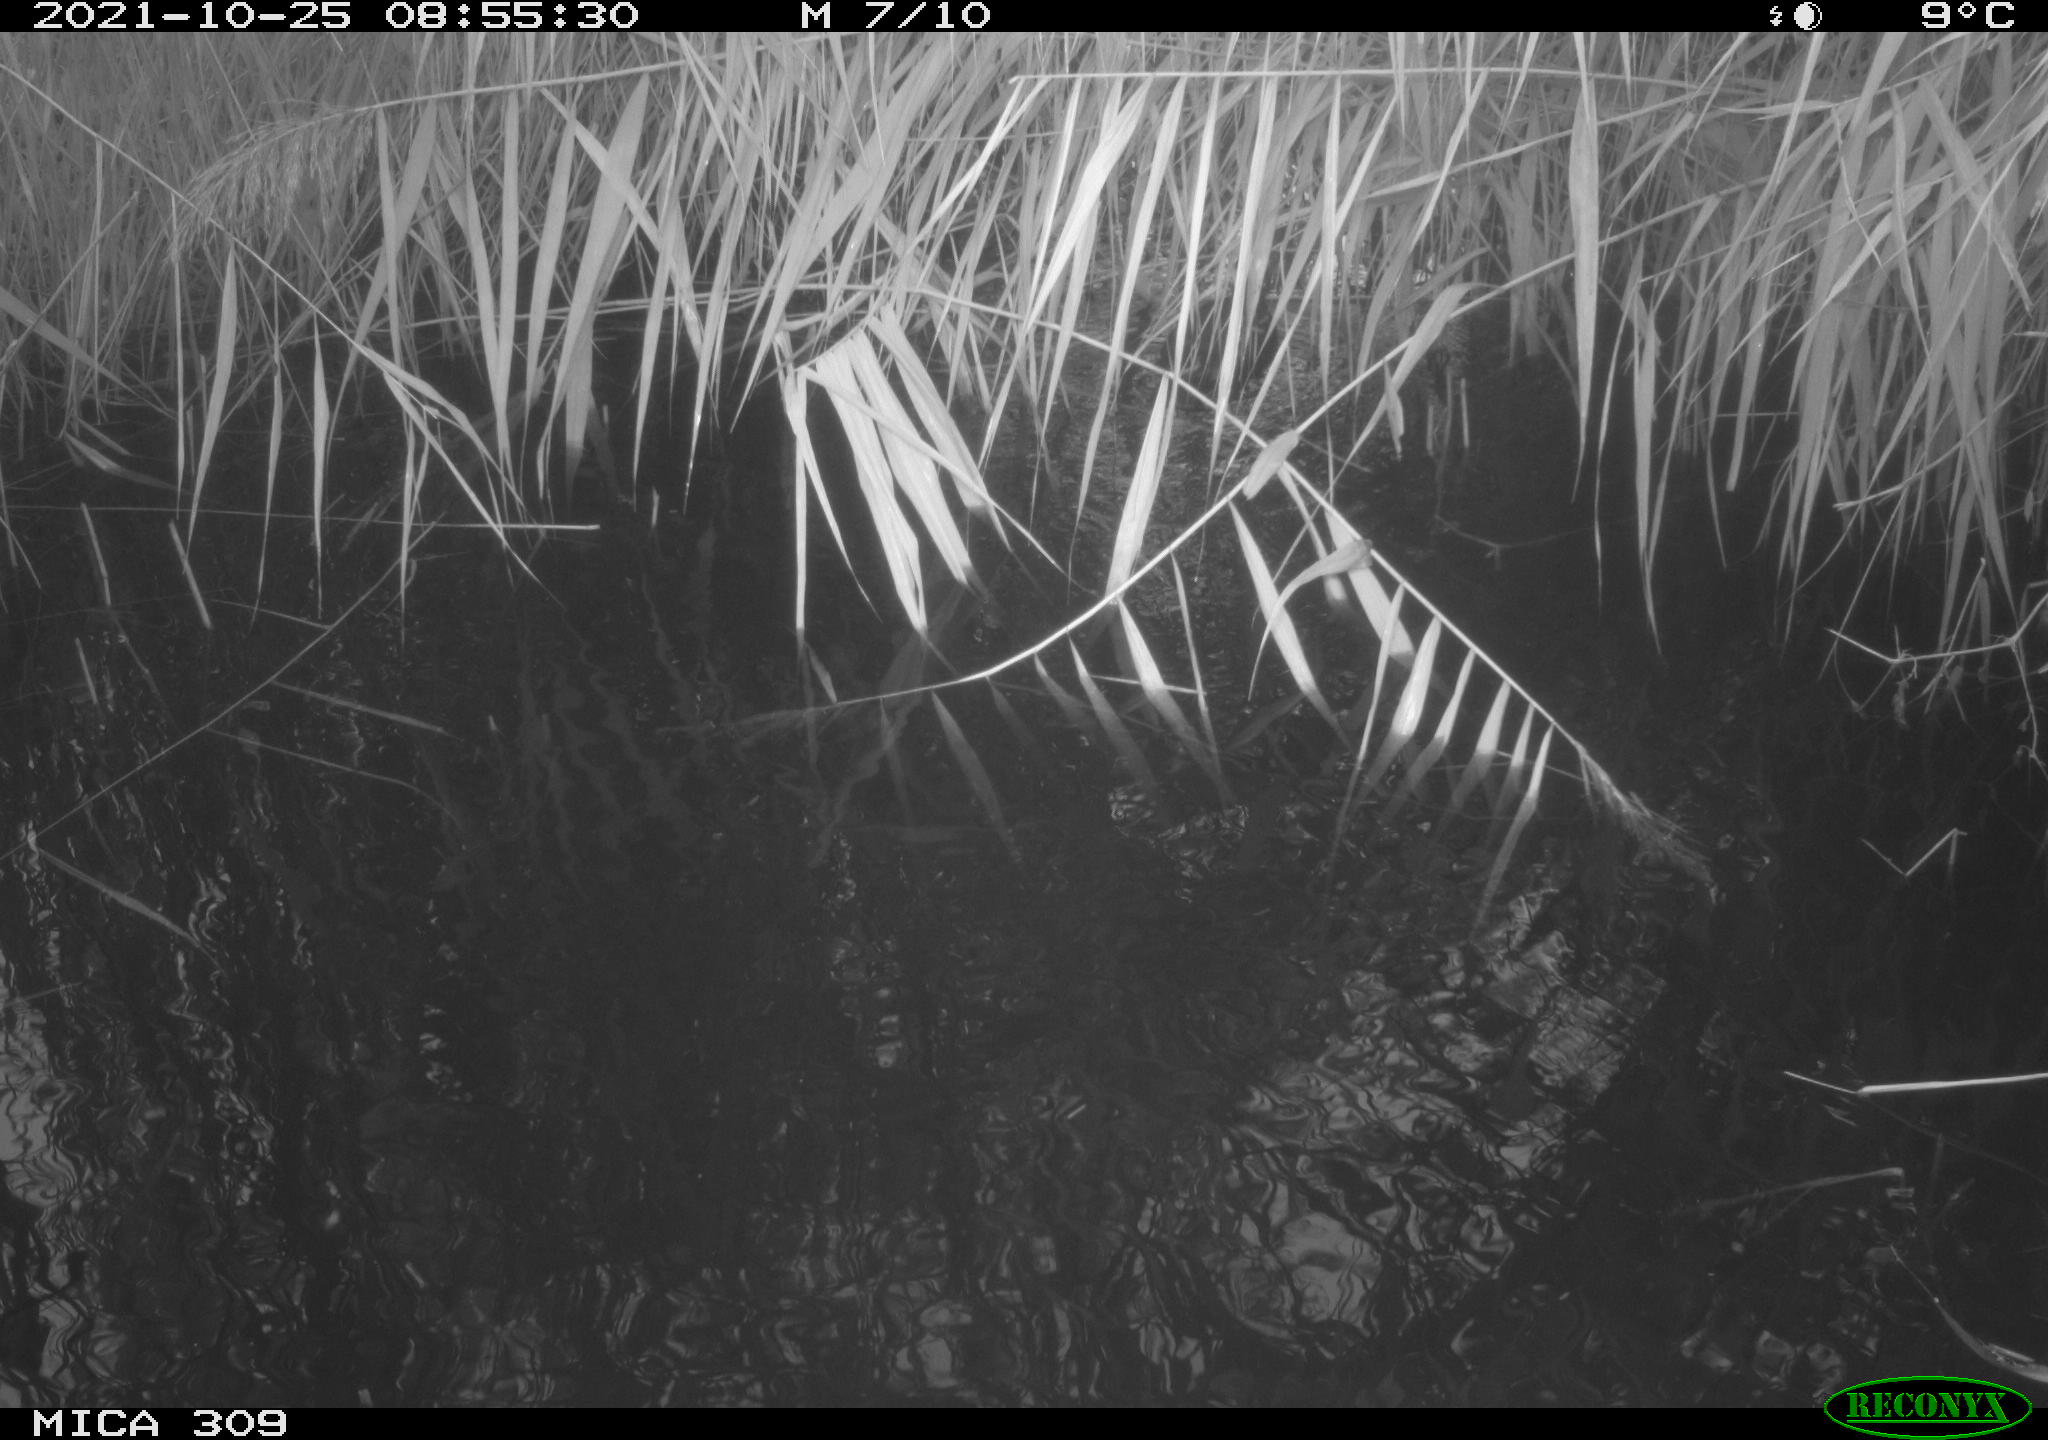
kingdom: Animalia
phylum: Chordata
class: Aves
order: Gruiformes
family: Rallidae
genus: Gallinula
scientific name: Gallinula chloropus
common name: Common moorhen
